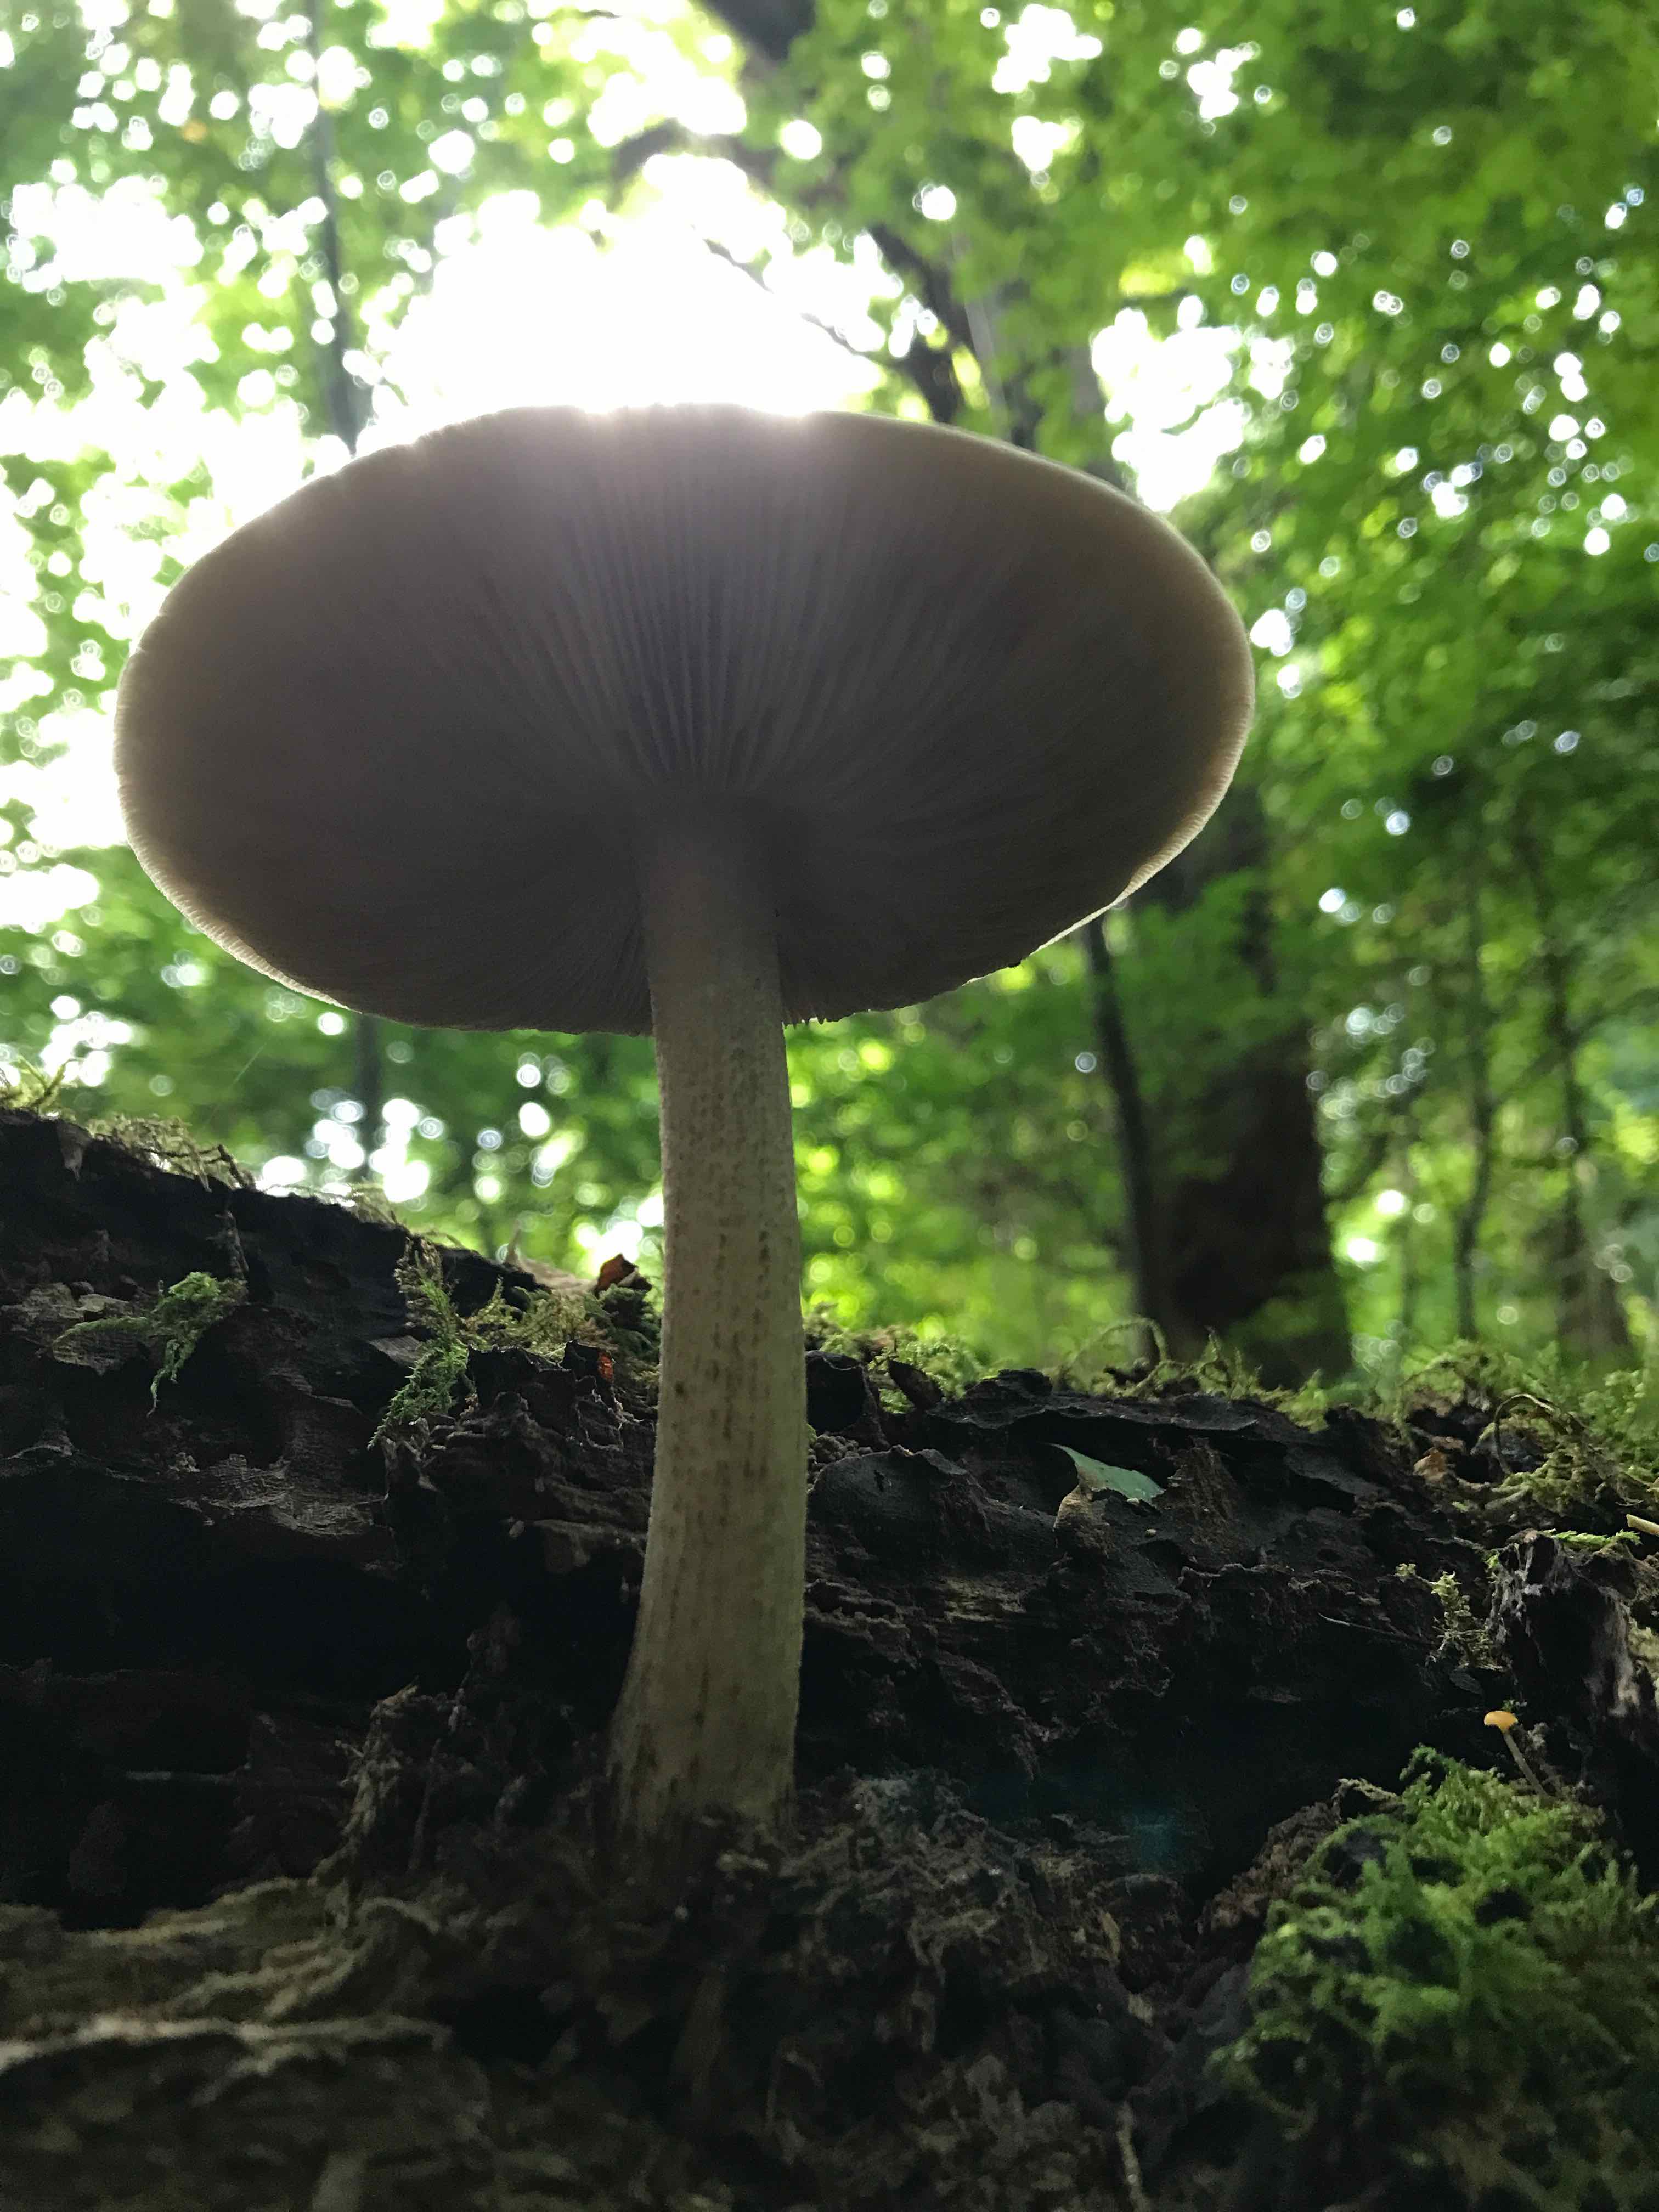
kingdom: Fungi
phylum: Basidiomycota
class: Agaricomycetes
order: Agaricales
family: Pluteaceae
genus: Pluteus
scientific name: Pluteus cervinus
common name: sodfarvet skærmhat
